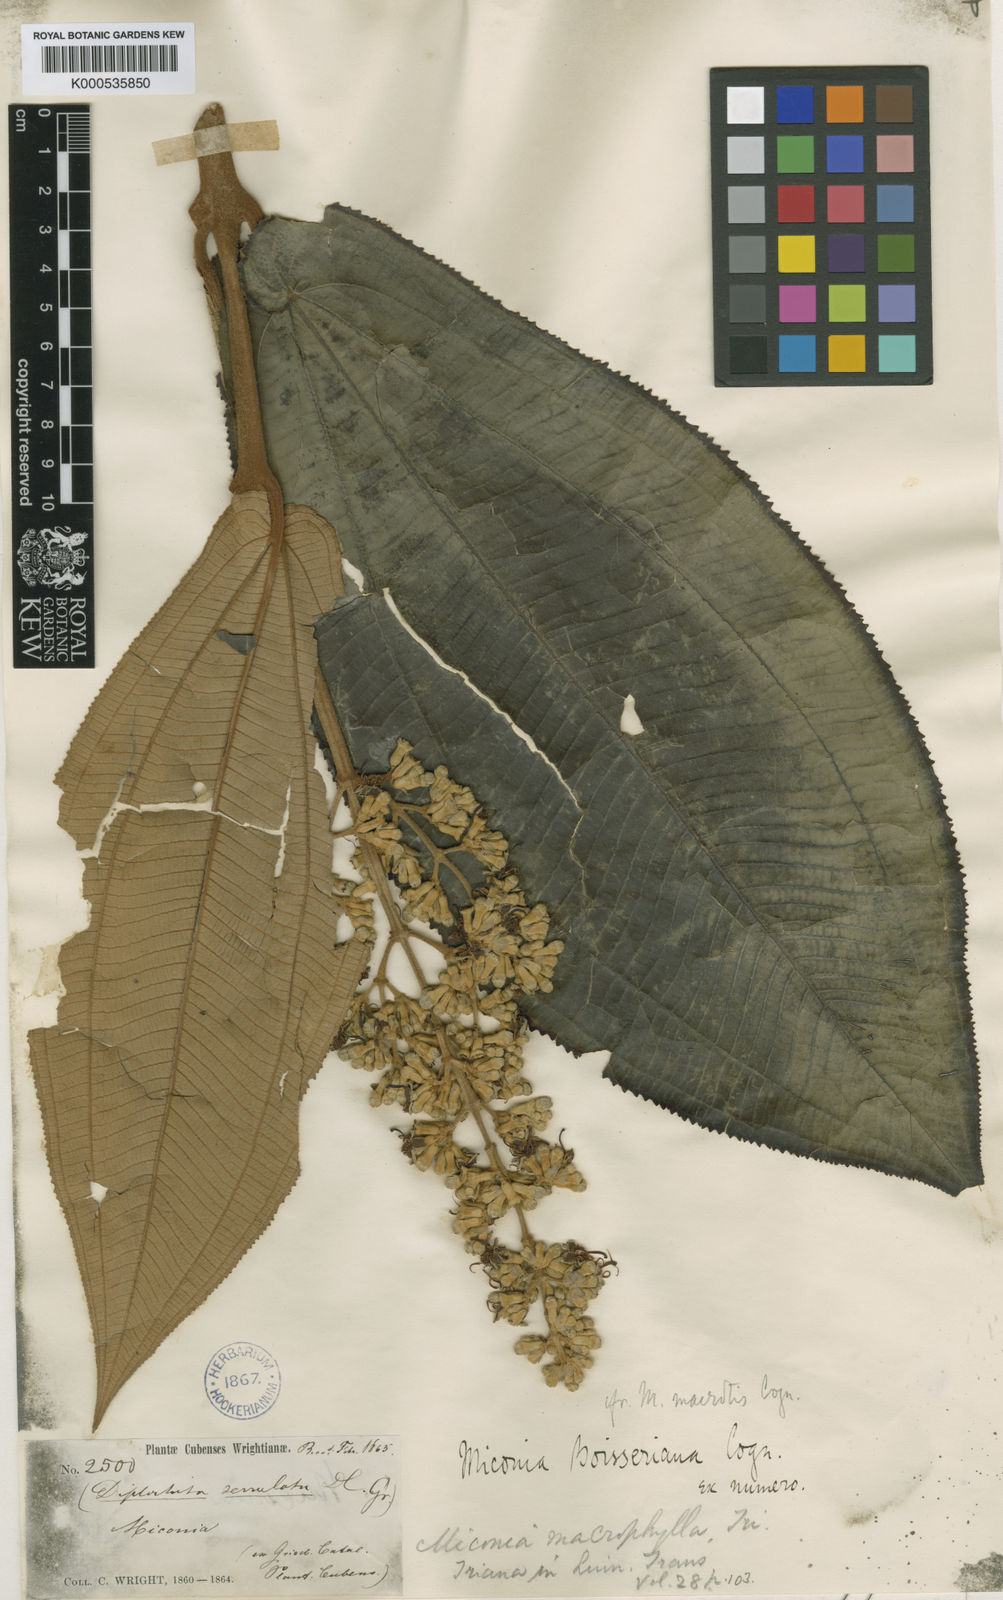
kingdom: Plantae
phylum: Tracheophyta
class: Magnoliopsida
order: Myrtales
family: Melastomataceae
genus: Miconia
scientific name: Miconia serrulata
